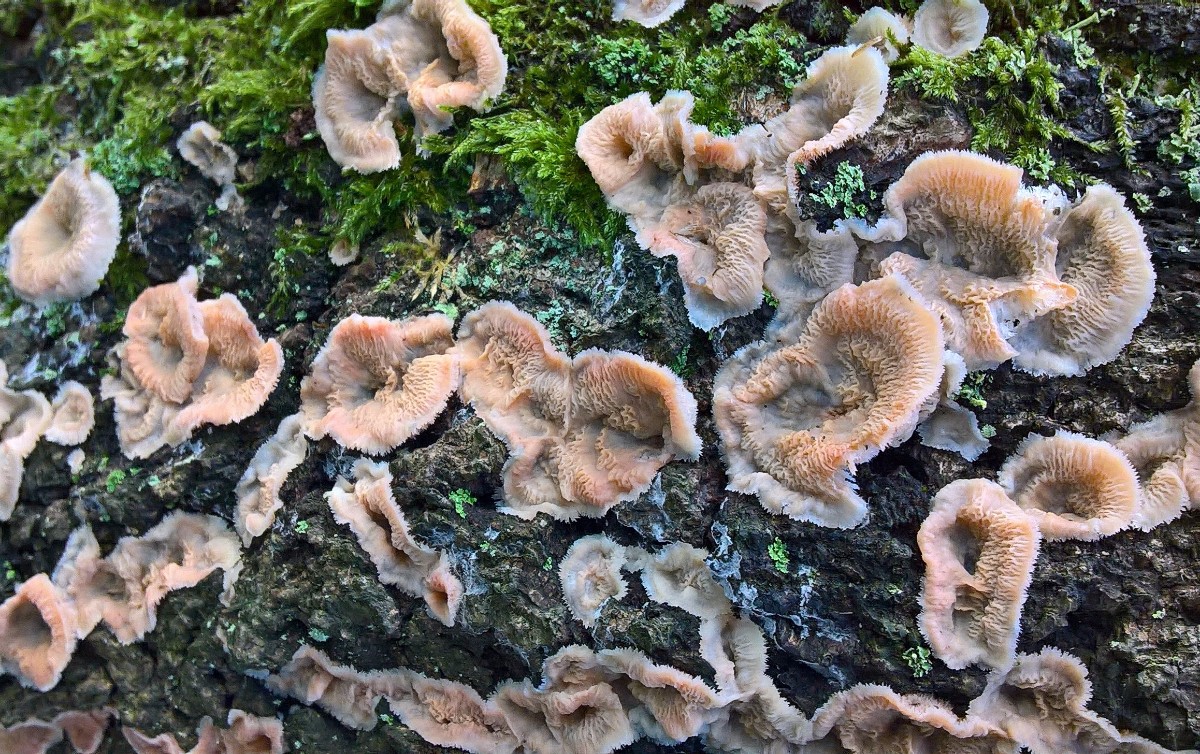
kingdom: Fungi
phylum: Basidiomycota
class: Agaricomycetes
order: Polyporales
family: Meruliaceae
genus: Phlebia
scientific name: Phlebia tremellosa
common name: bævrende åresvamp
